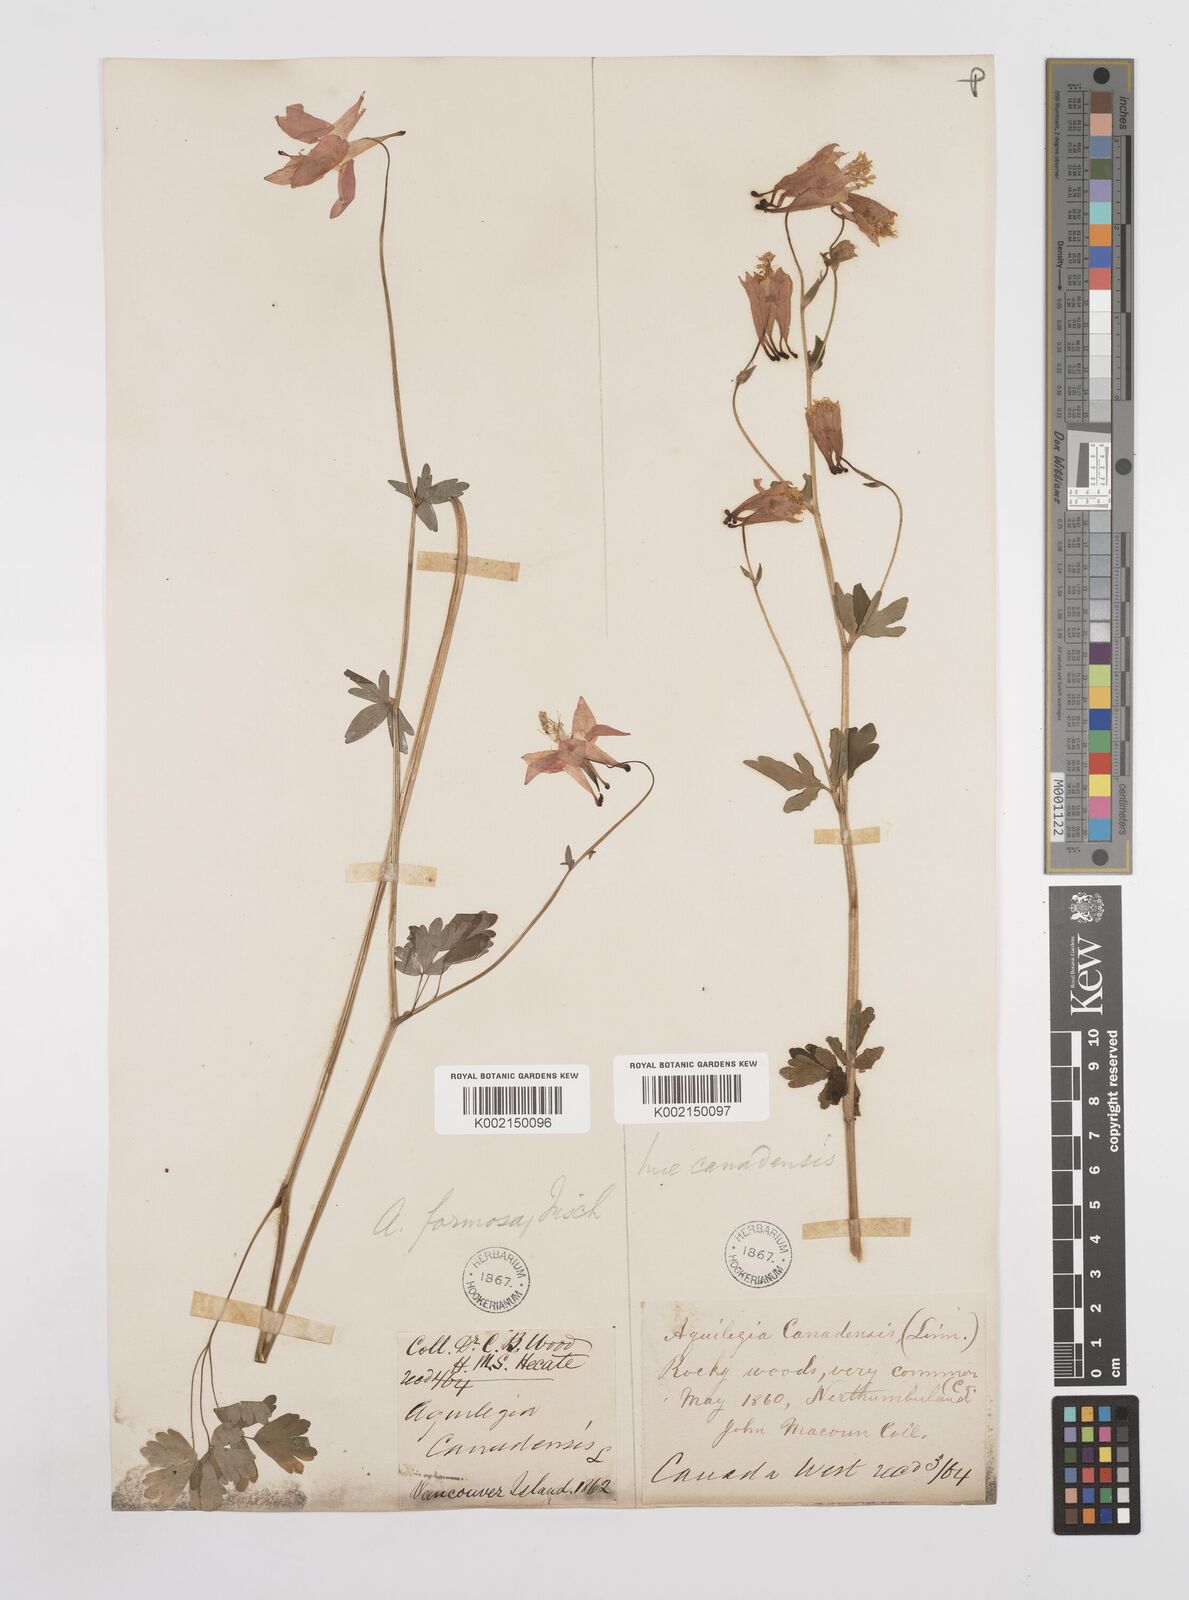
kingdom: Plantae
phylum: Tracheophyta
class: Magnoliopsida
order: Ranunculales
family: Ranunculaceae
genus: Aquilegia
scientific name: Aquilegia
